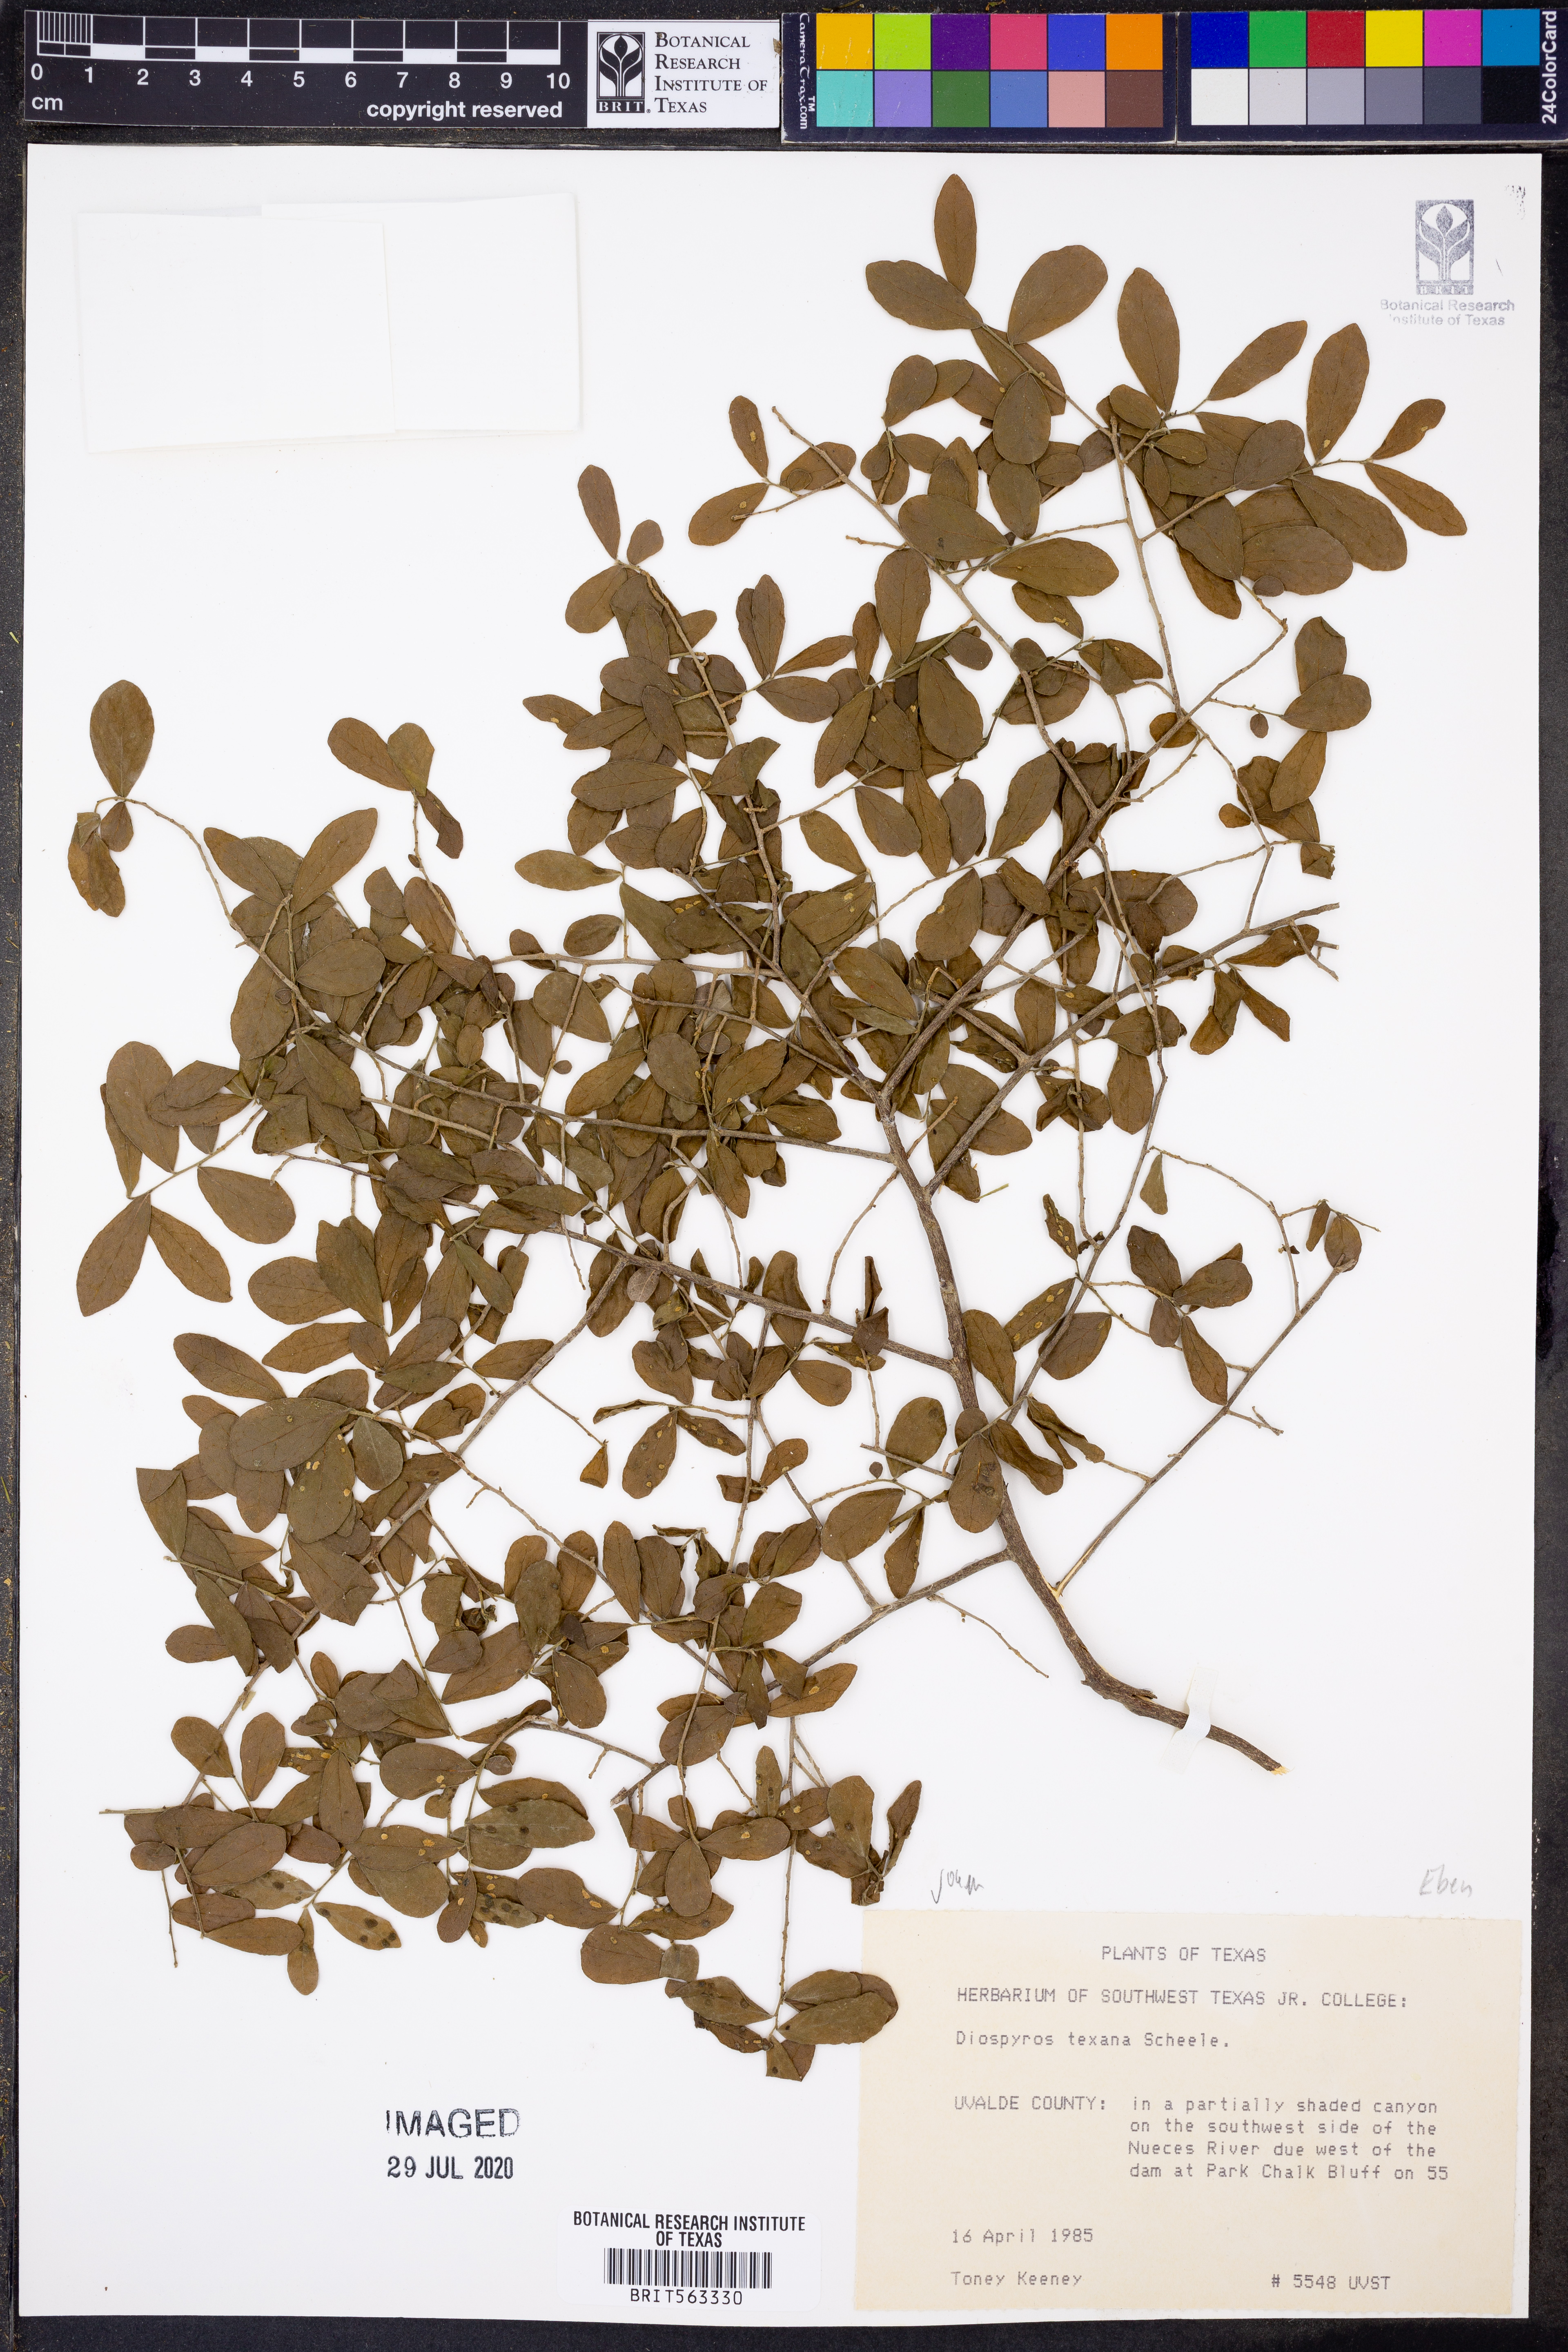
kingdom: Plantae
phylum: Tracheophyta
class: Magnoliopsida
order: Ericales
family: Ebenaceae
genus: Diospyros
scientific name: Diospyros texana
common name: Texas persimmon
